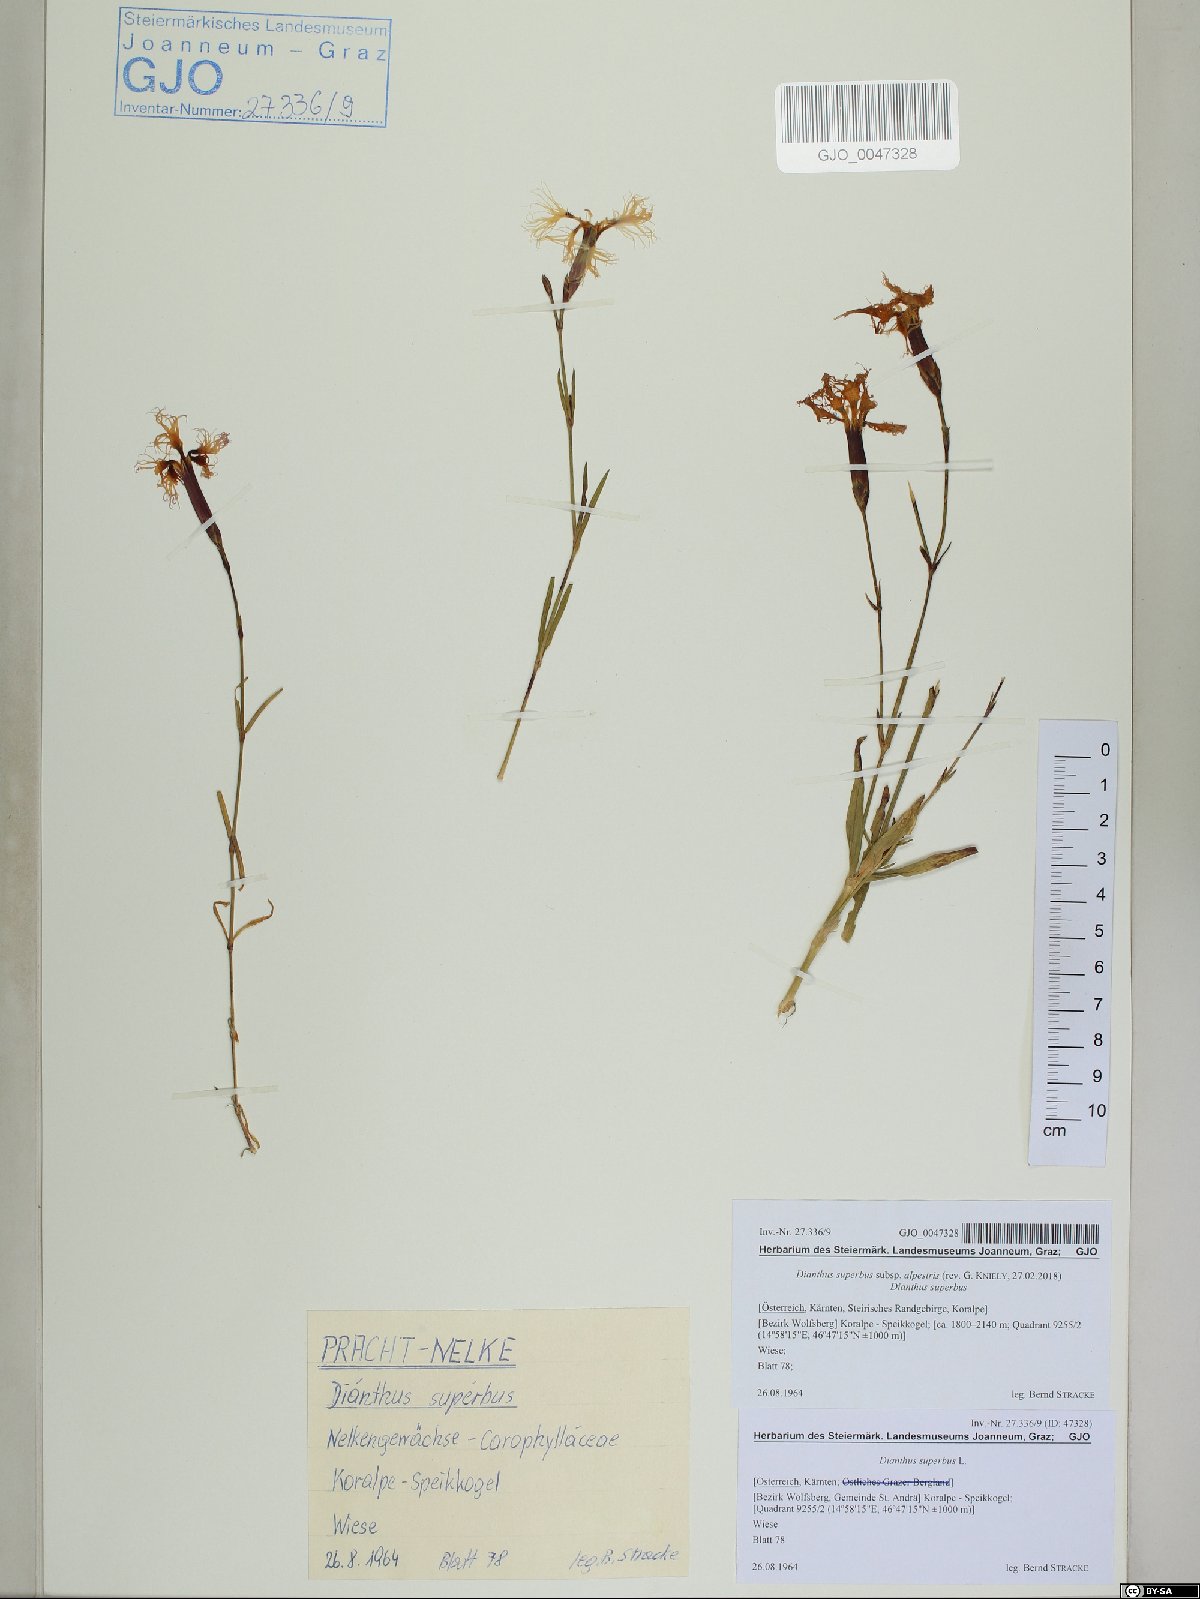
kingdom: Plantae
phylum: Tracheophyta
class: Magnoliopsida
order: Caryophyllales
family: Caryophyllaceae
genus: Dianthus
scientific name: Dianthus superbus
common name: Fringed pink
